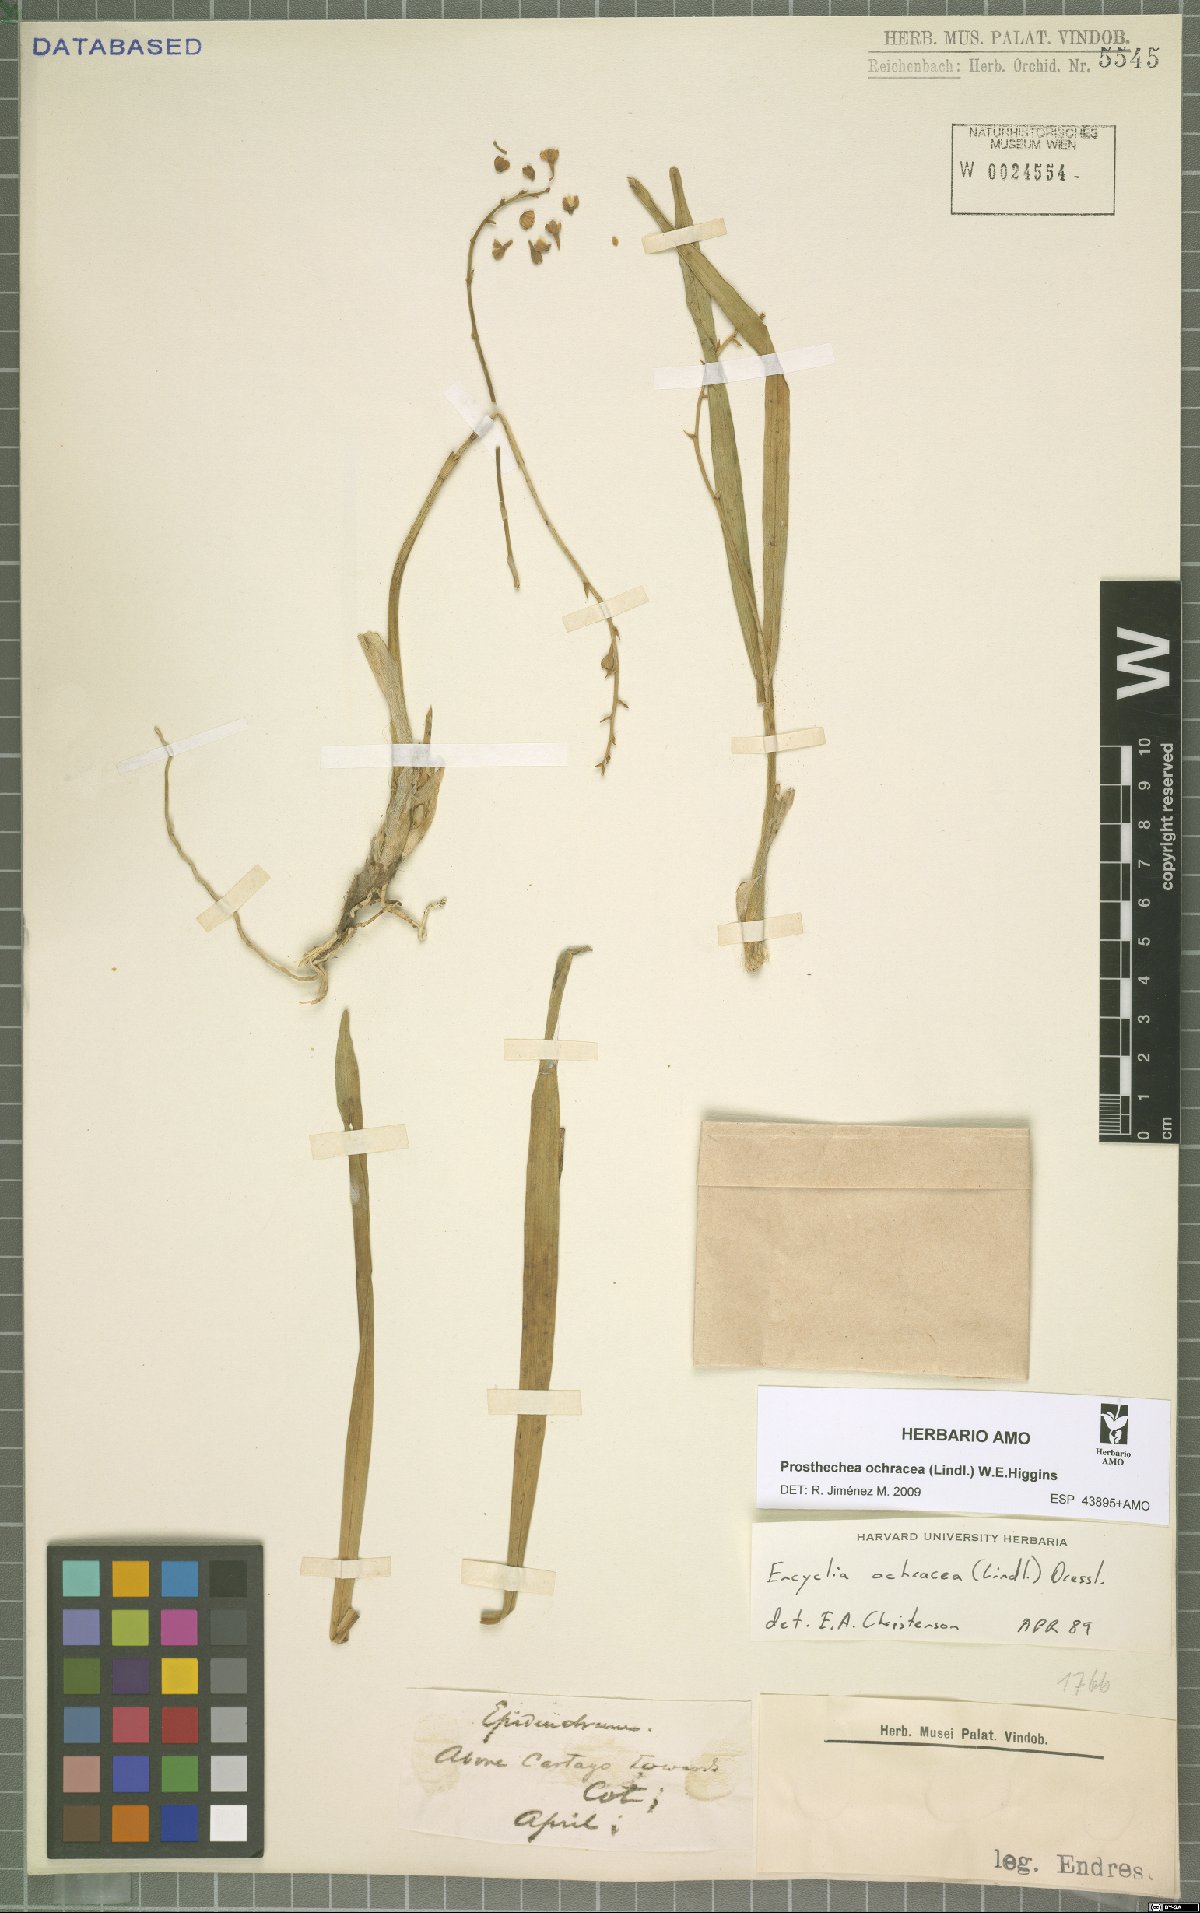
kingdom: Plantae
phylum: Tracheophyta
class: Liliopsida
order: Asparagales
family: Orchidaceae
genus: Prosthechea
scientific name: Prosthechea ochracea
